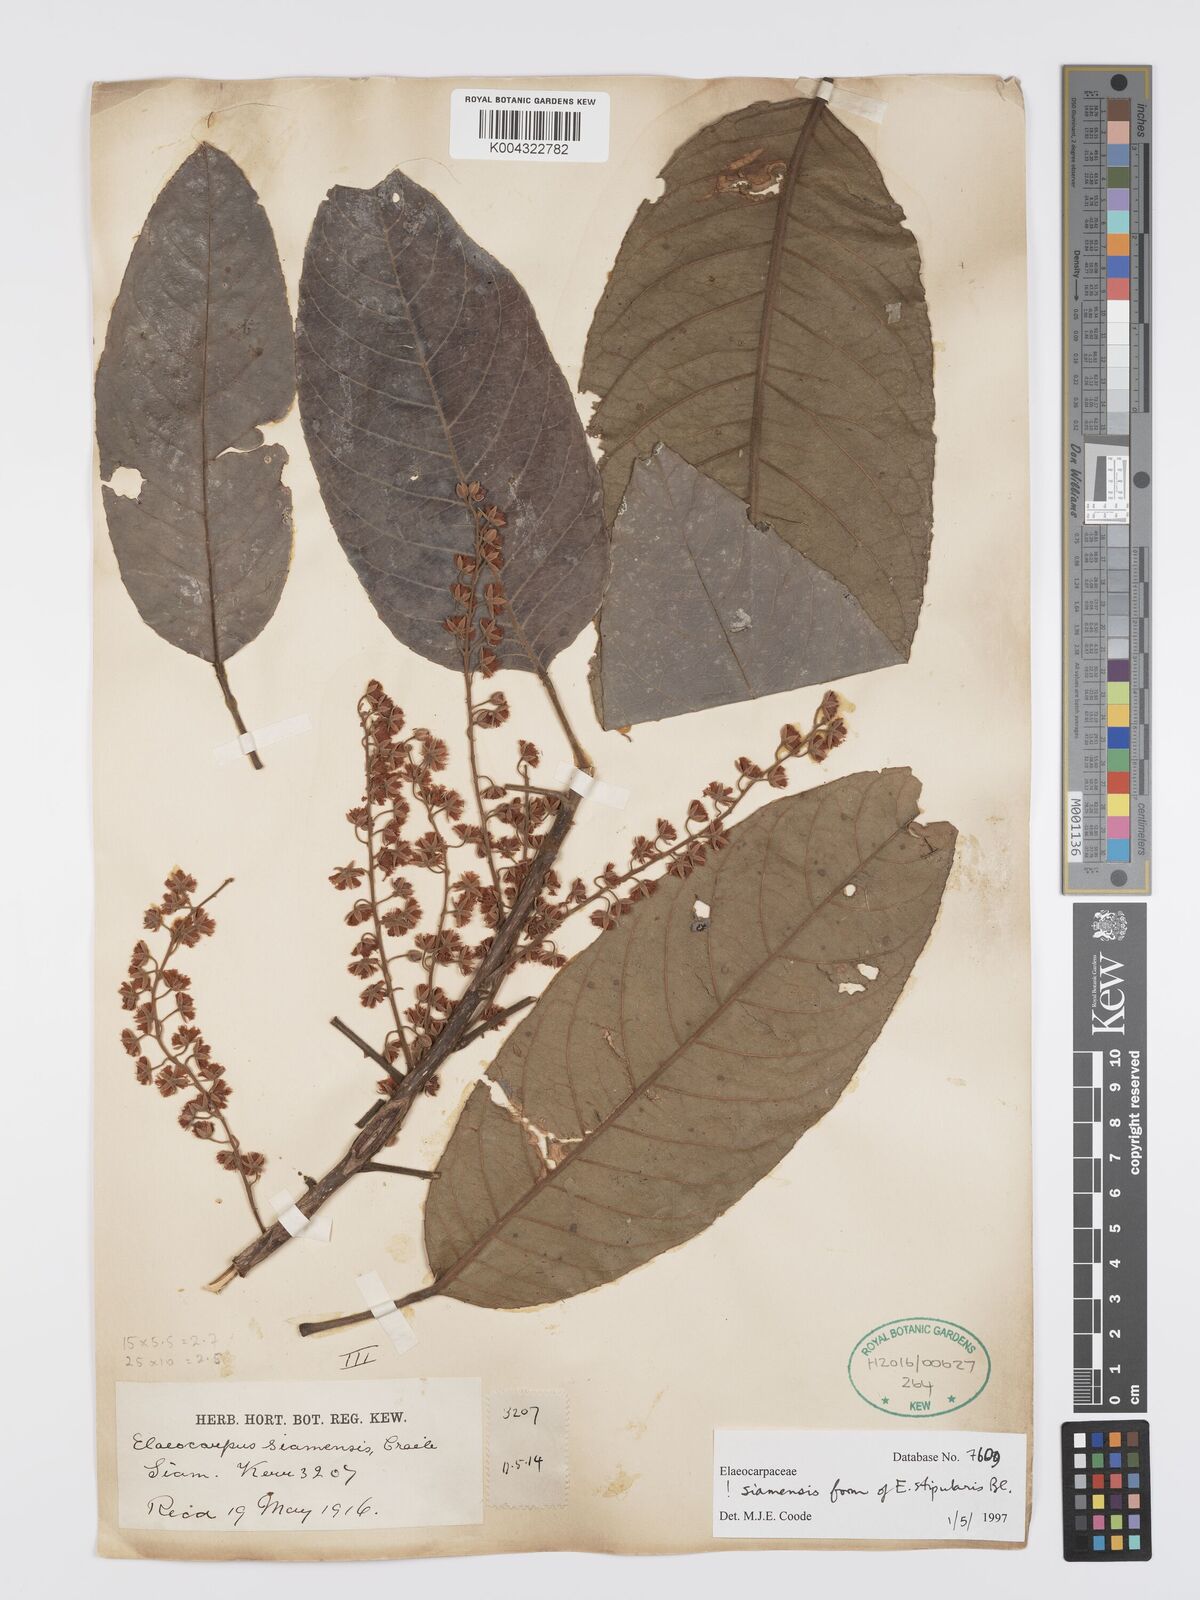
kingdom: Plantae
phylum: Tracheophyta
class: Magnoliopsida
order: Oxalidales
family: Elaeocarpaceae
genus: Elaeocarpus
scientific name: Elaeocarpus stipularis
